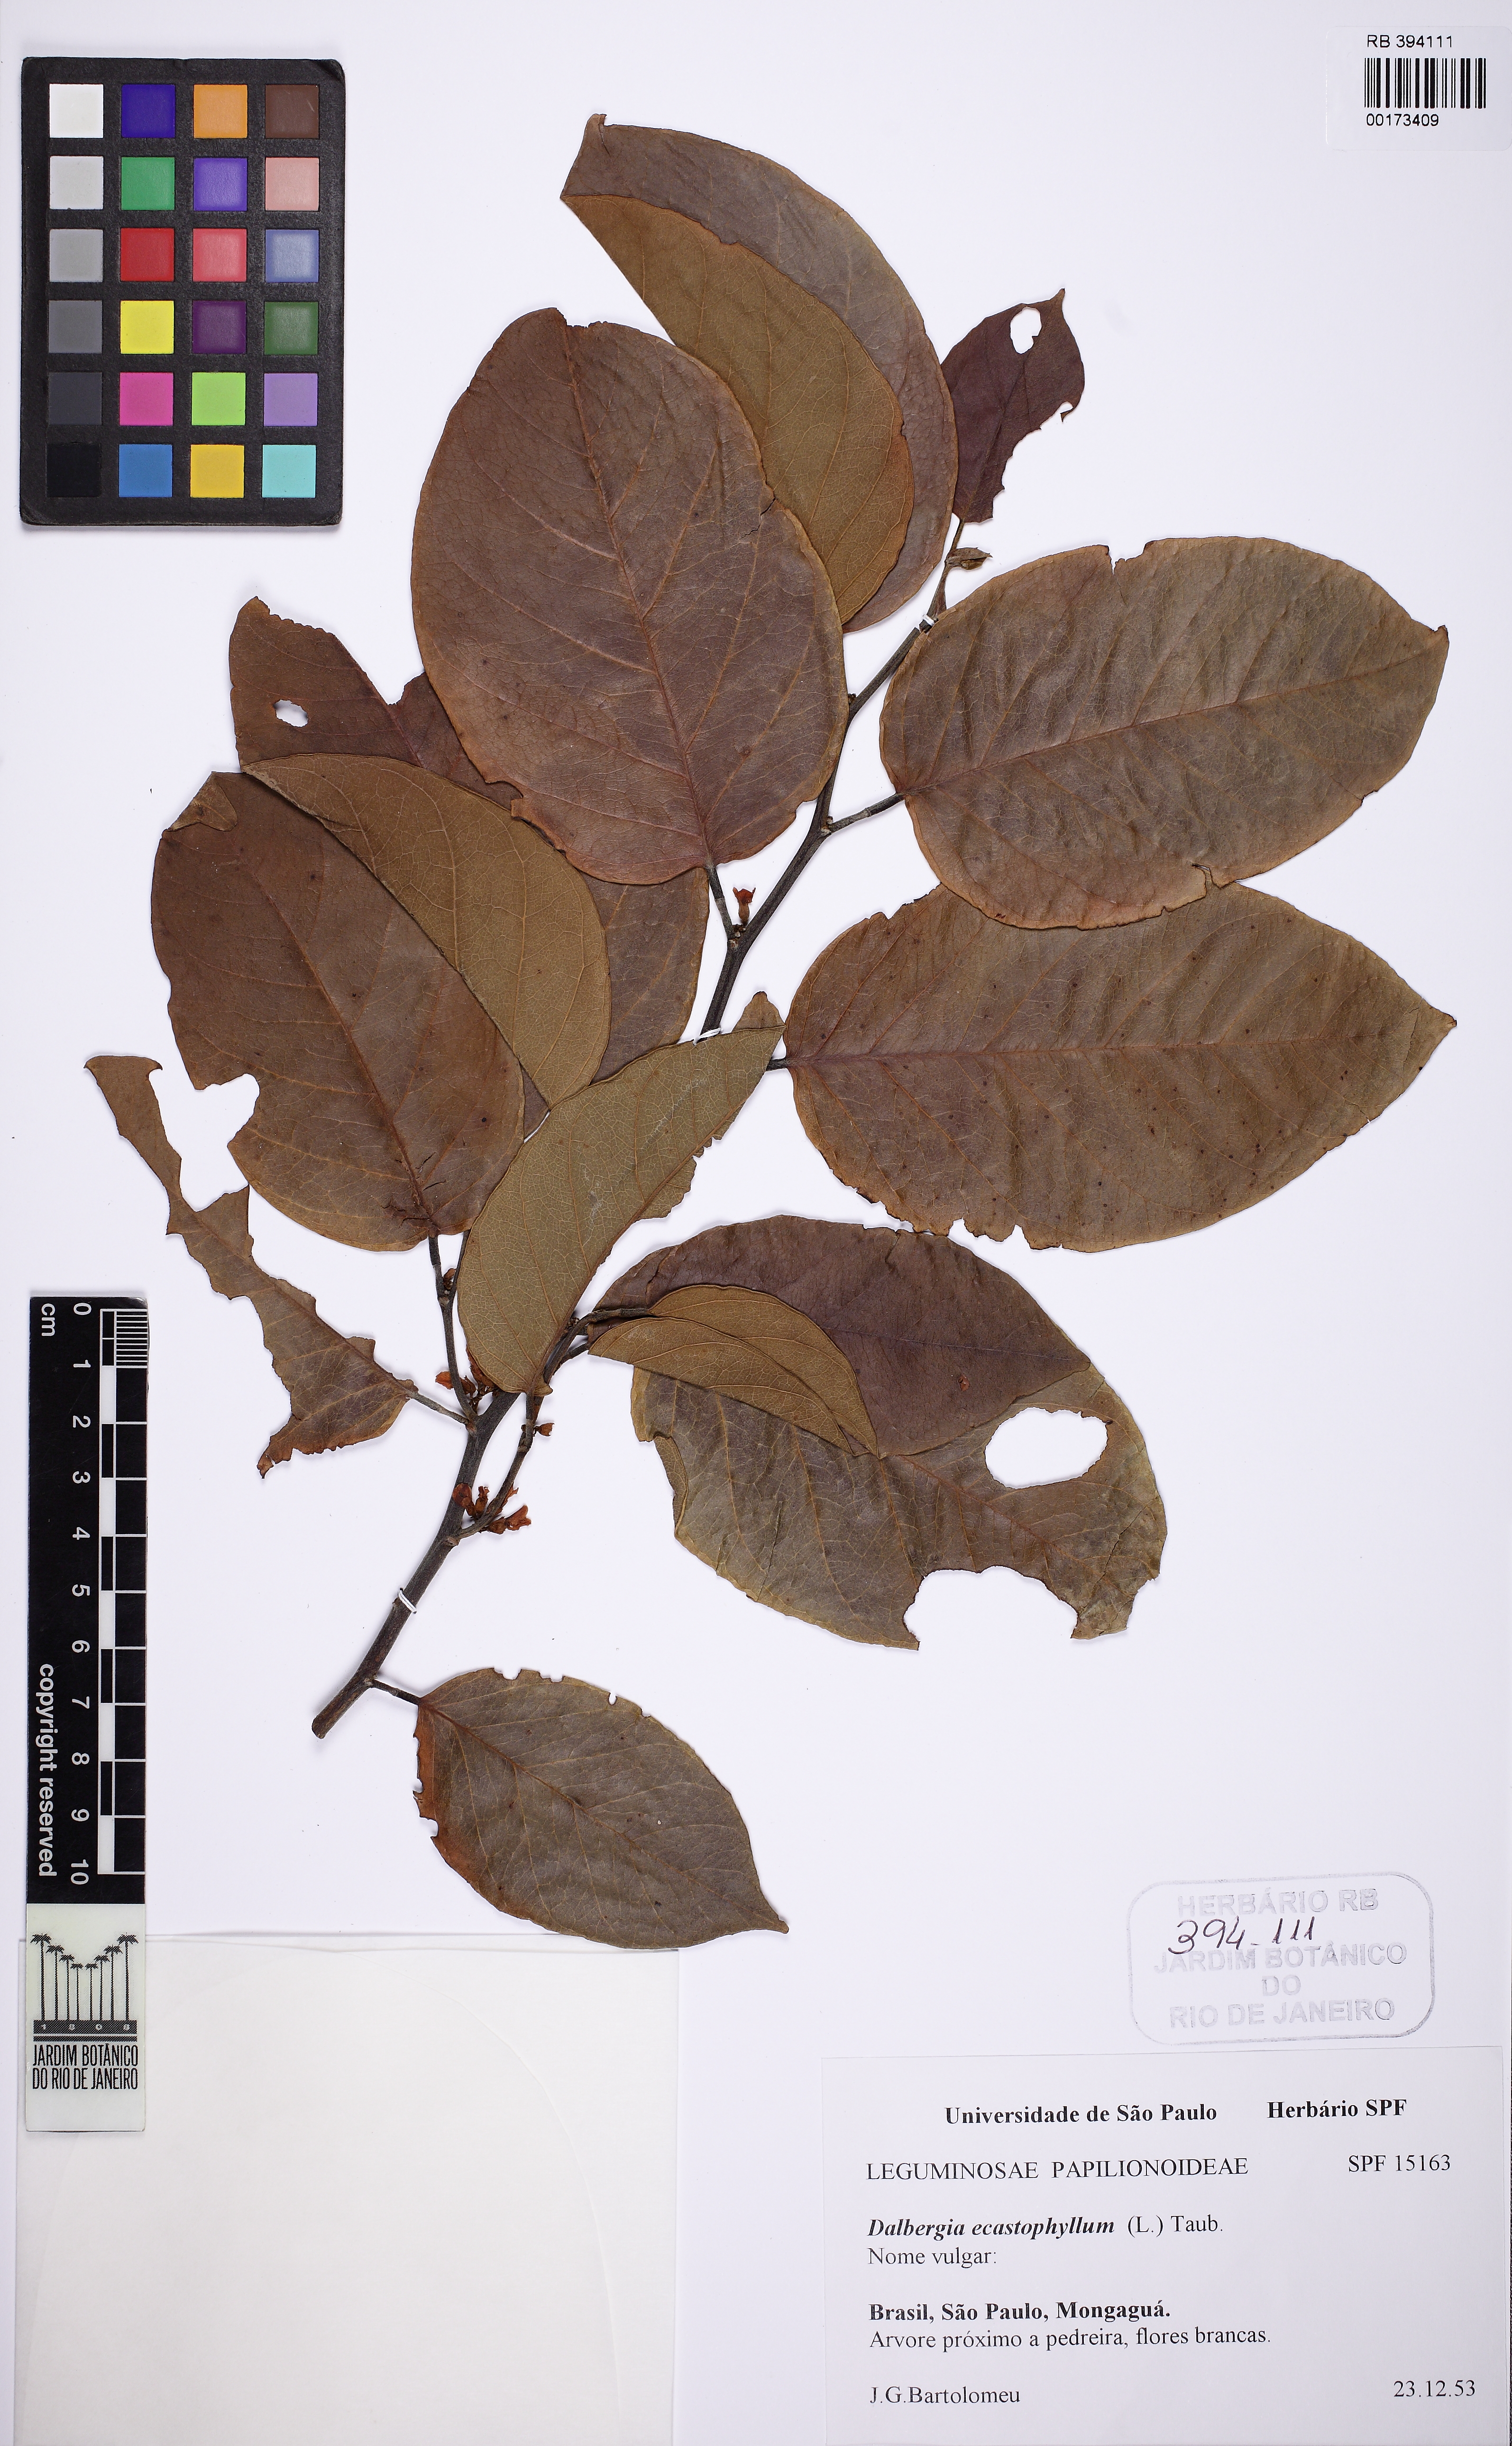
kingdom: Plantae
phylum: Tracheophyta
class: Magnoliopsida
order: Fabales
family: Fabaceae
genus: Dalbergia
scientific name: Dalbergia ecastaphyllum
